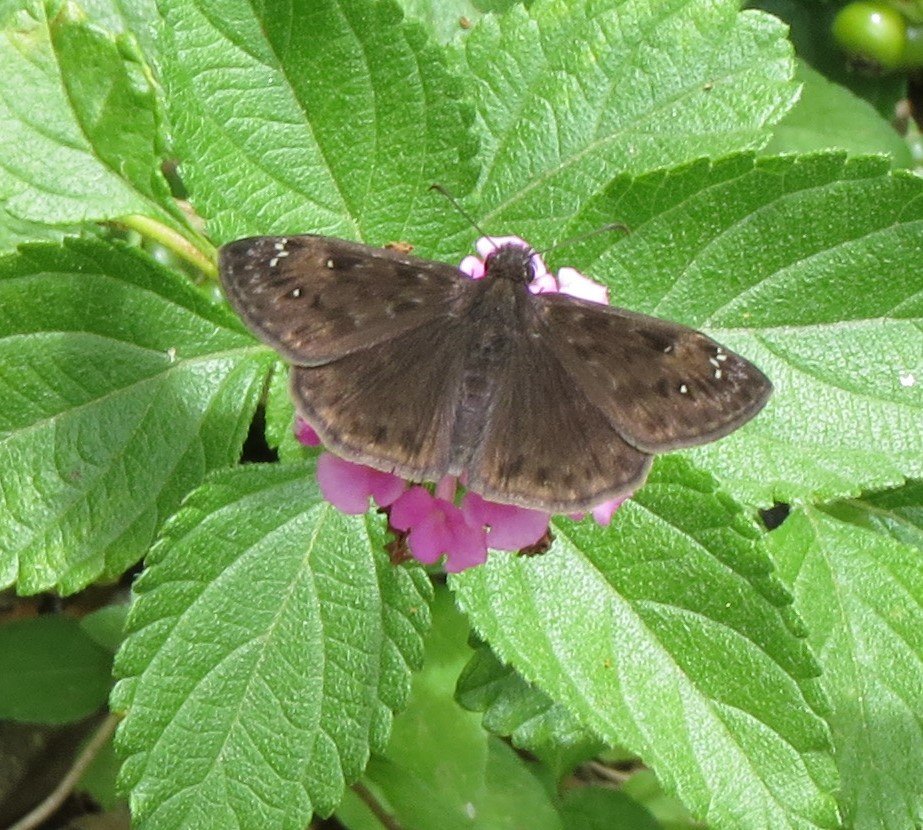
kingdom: Animalia
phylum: Arthropoda
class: Insecta
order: Lepidoptera
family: Hesperiidae
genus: Gesta
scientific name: Gesta
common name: Horace's Duskywing
